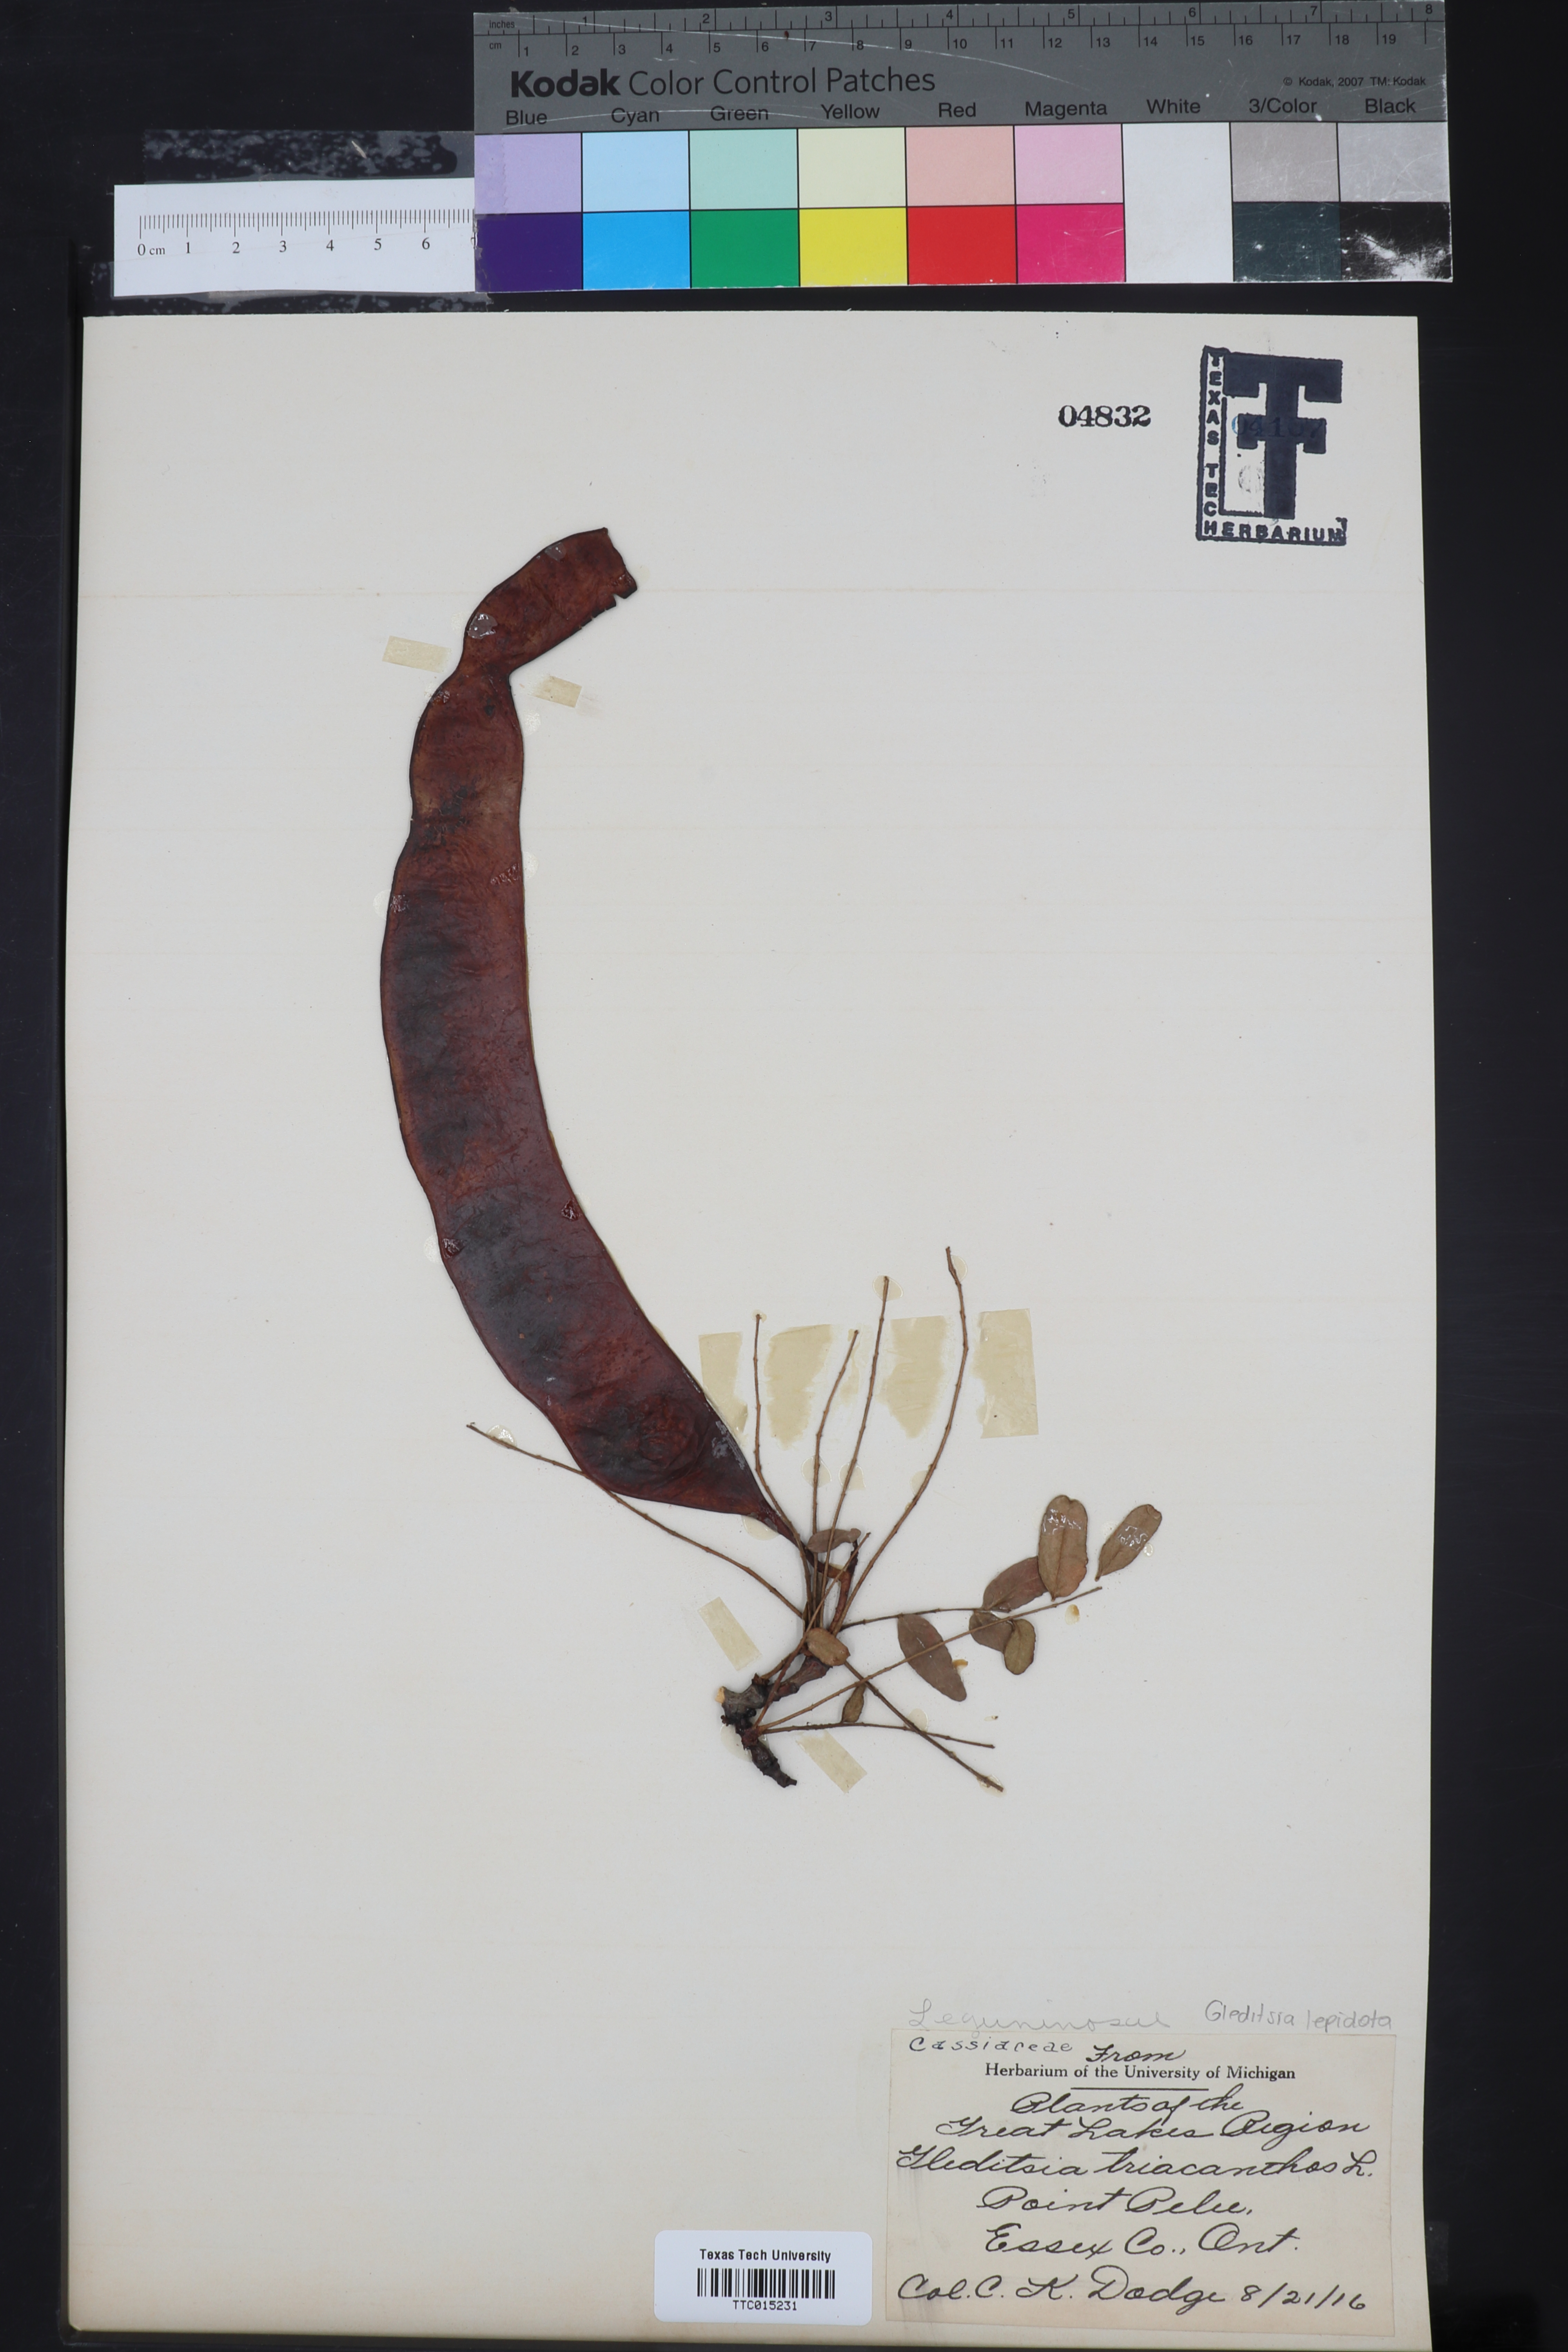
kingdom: Plantae
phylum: Tracheophyta
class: Magnoliopsida
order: Fabales
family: Fabaceae
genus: Gleditsia
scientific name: Gleditsia triacanthos
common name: Common honeylocust
